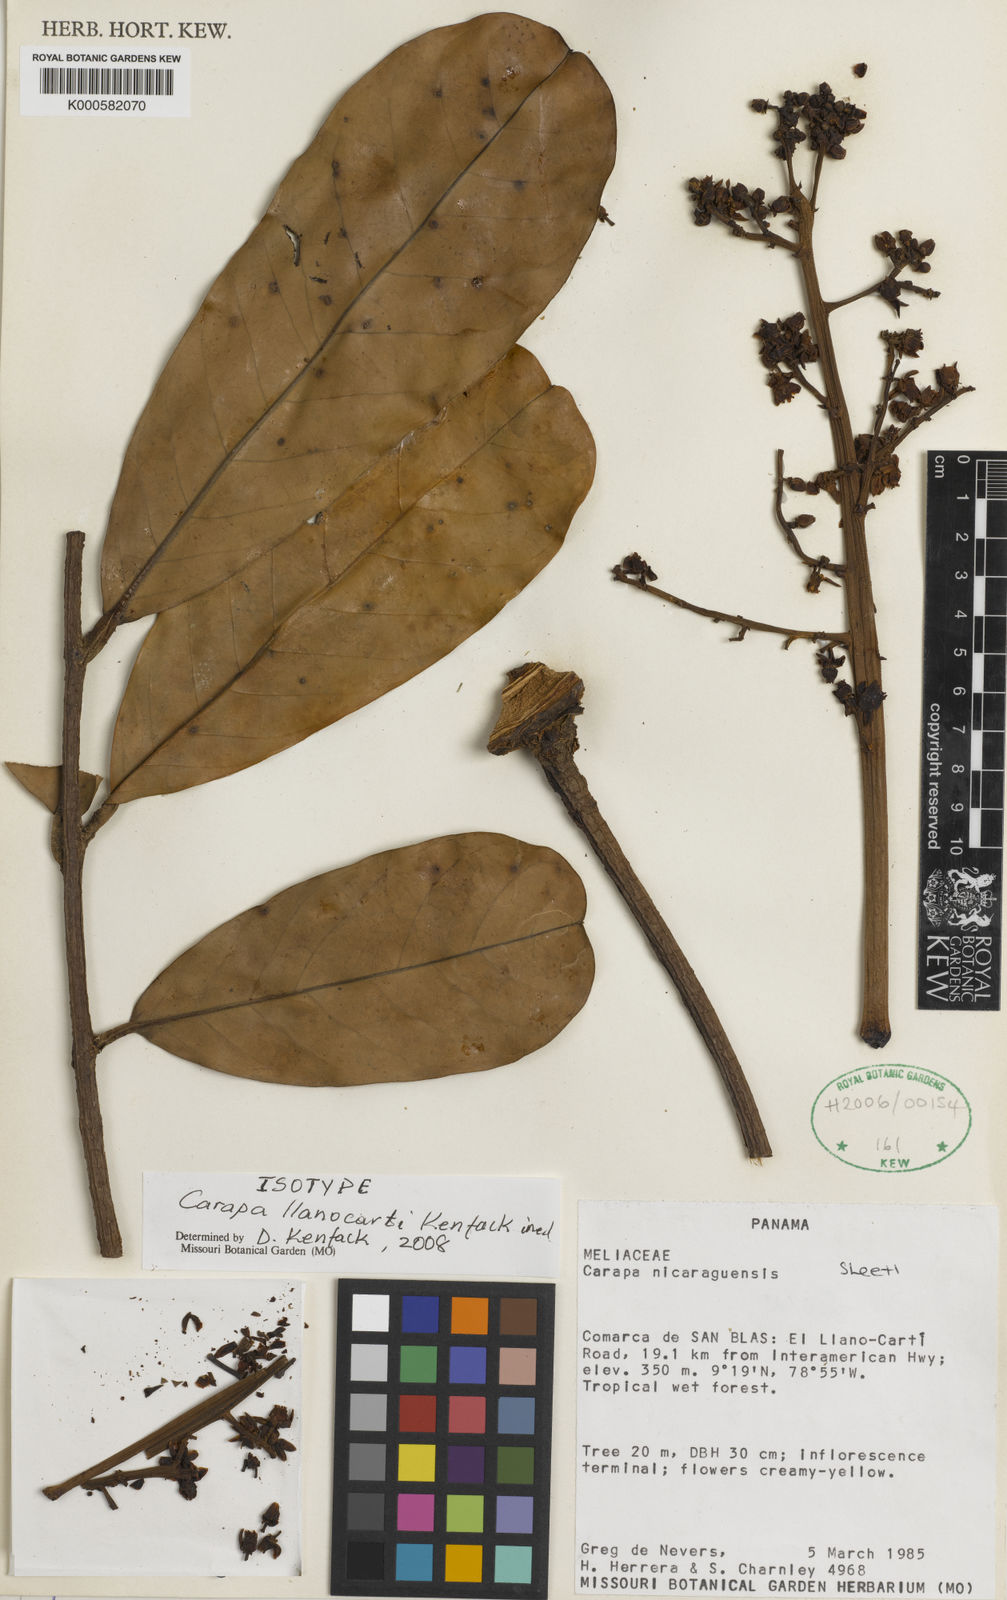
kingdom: Plantae
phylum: Tracheophyta
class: Magnoliopsida
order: Sapindales
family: Meliaceae
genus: Carapa
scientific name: Carapa guianensis
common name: Crabwood
